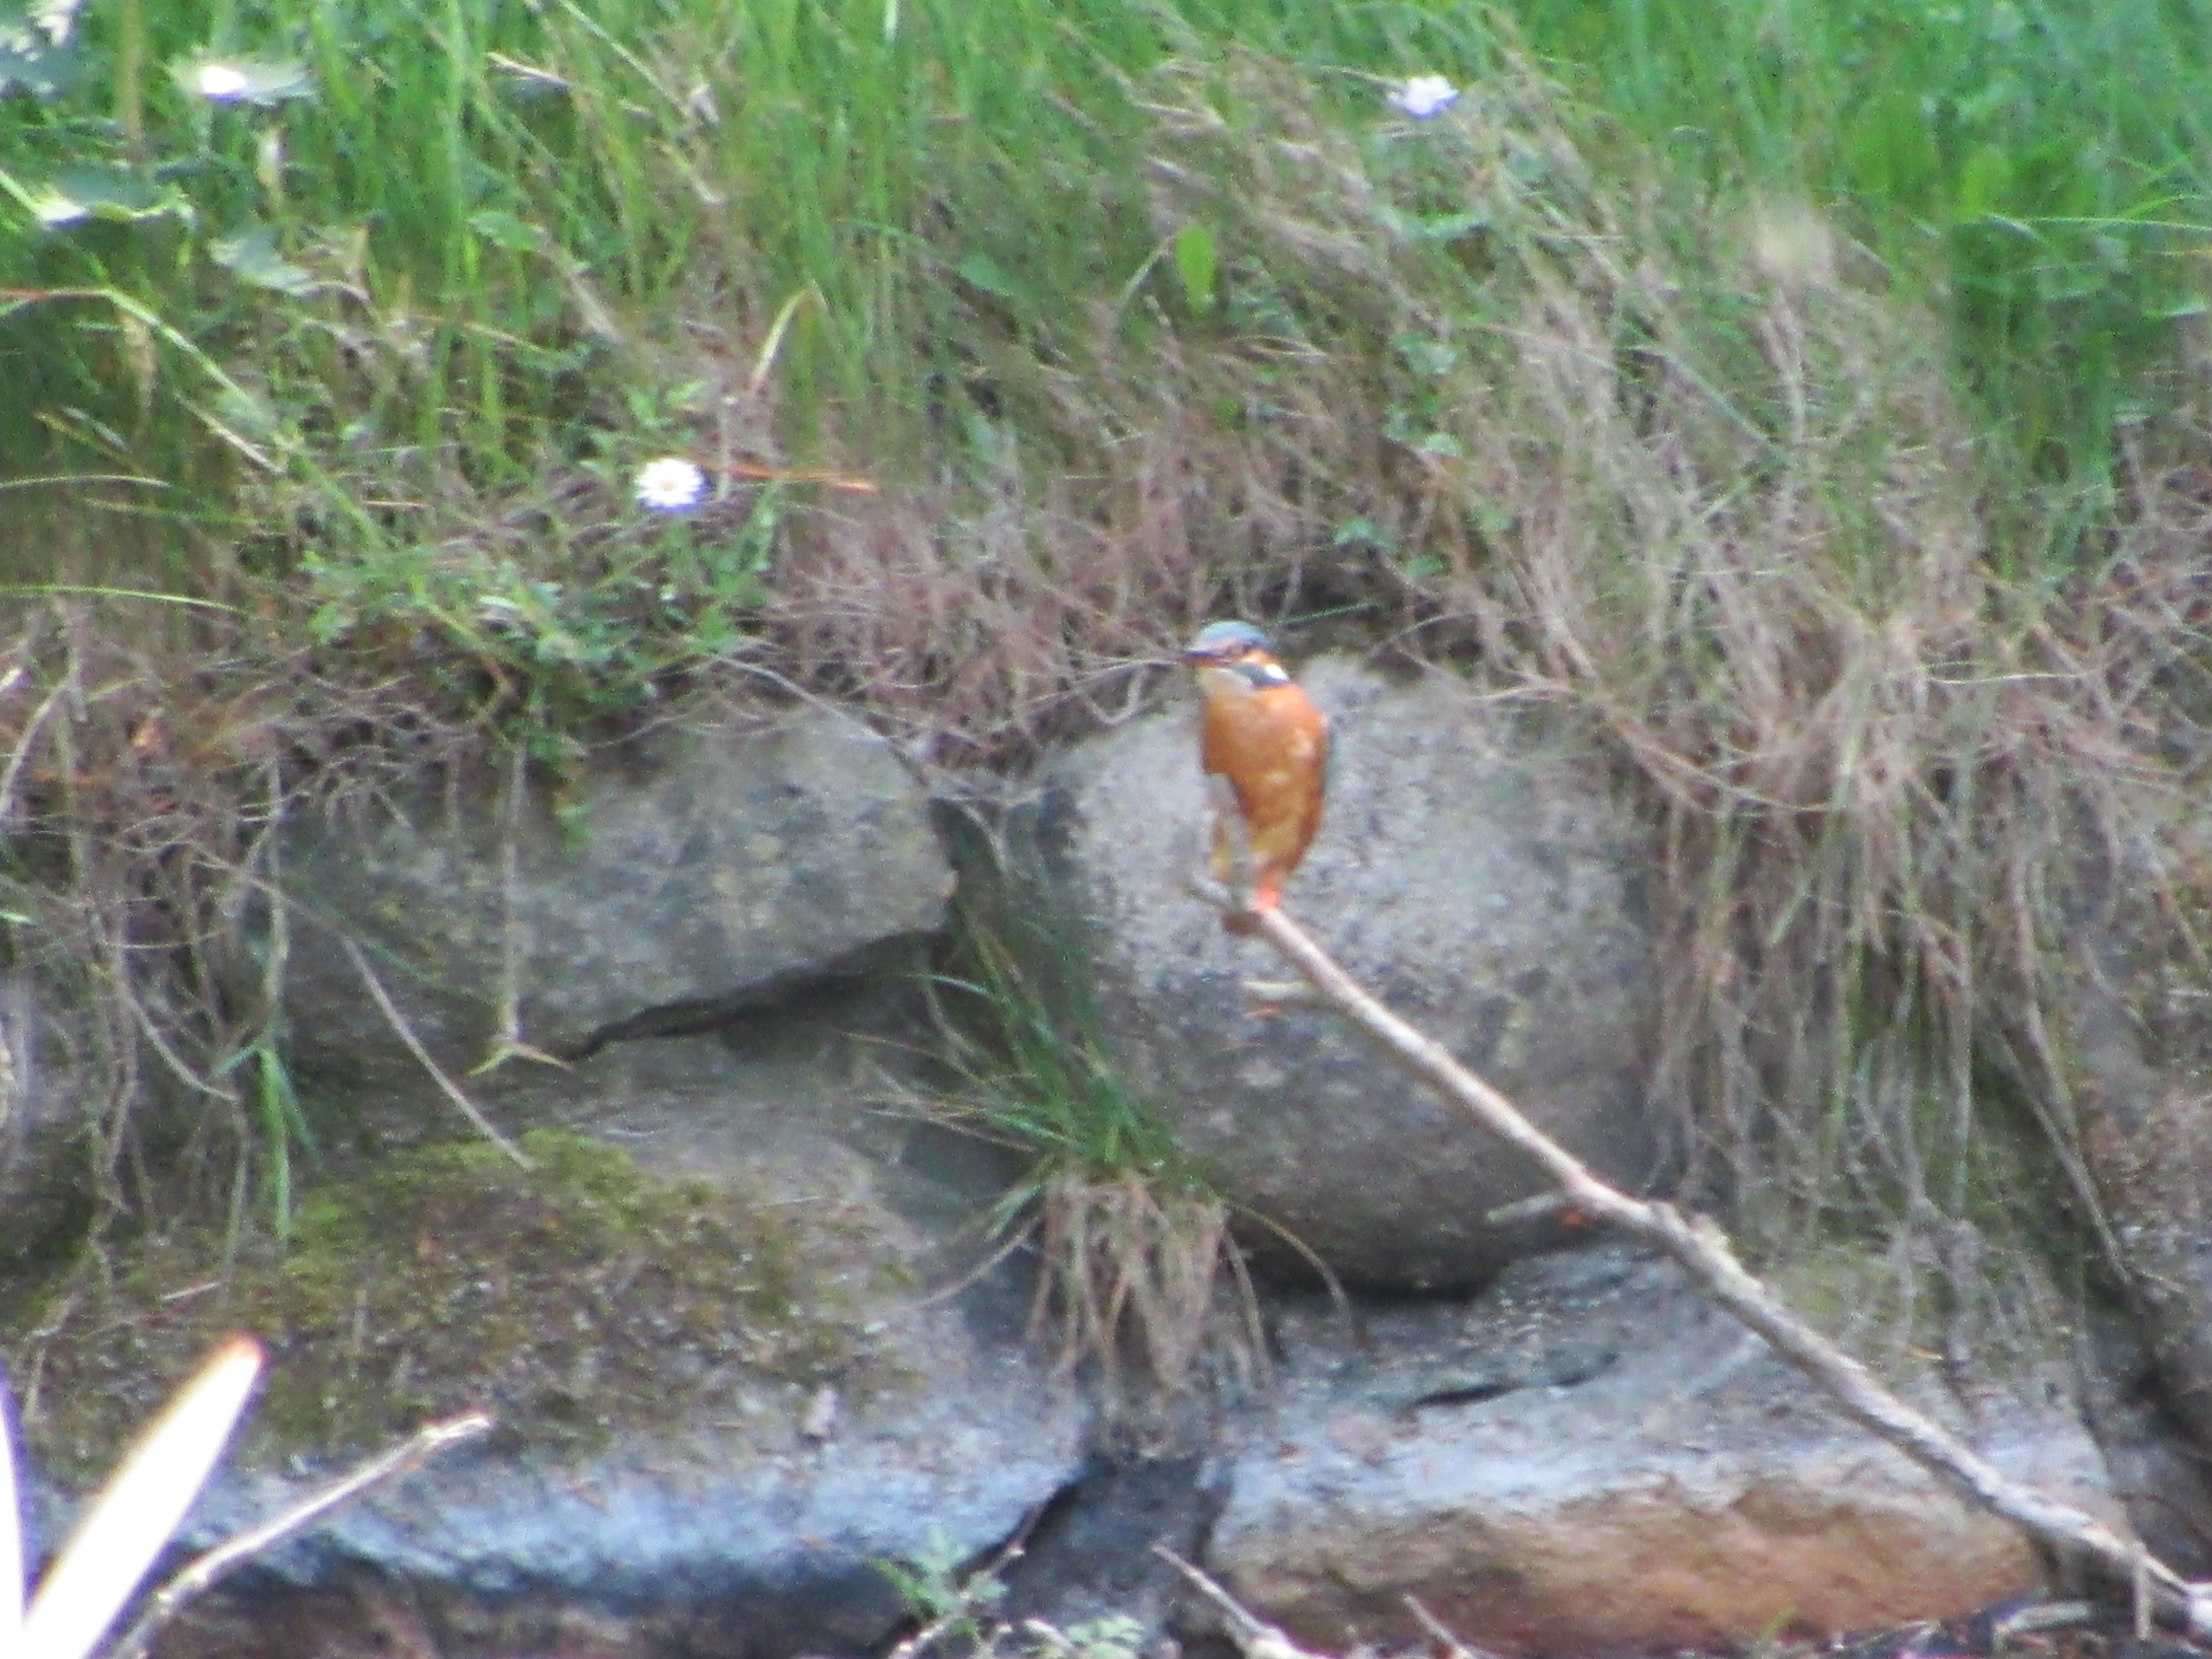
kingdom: Animalia
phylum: Chordata
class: Aves
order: Coraciiformes
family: Alcedinidae
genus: Alcedo
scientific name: Alcedo atthis
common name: Isfugl
